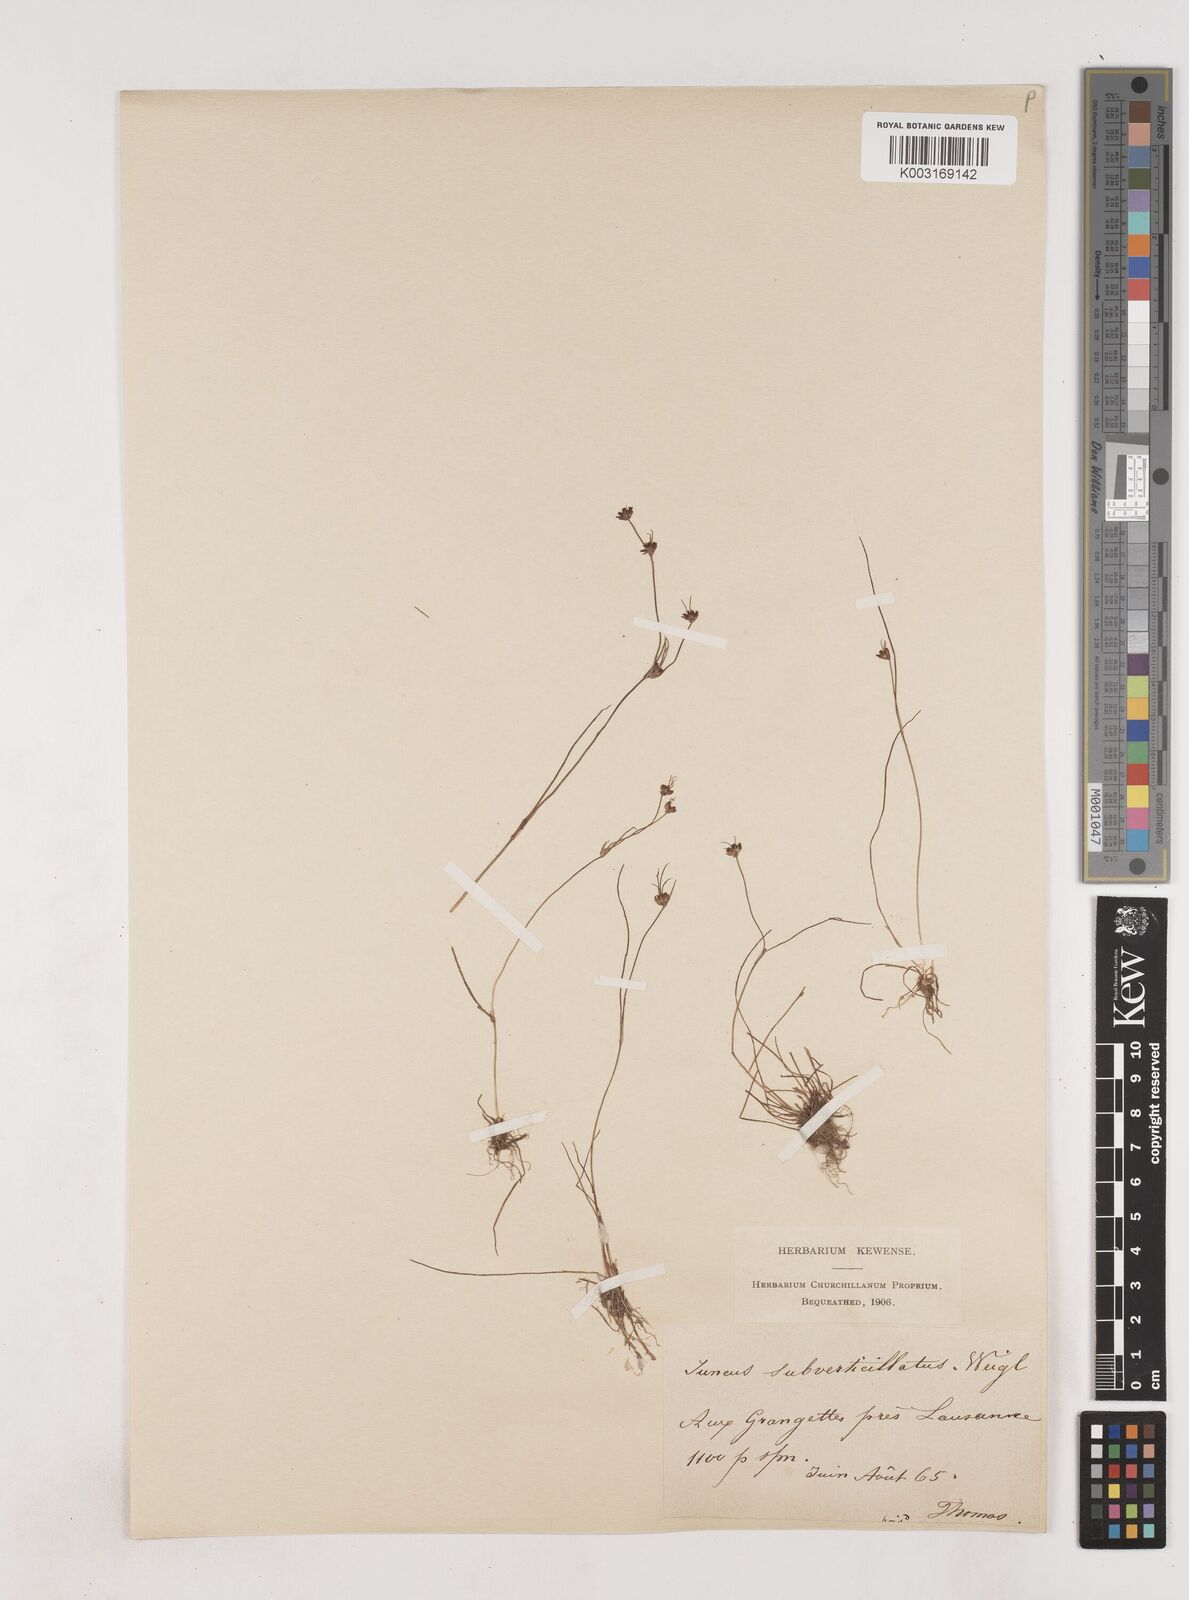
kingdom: Plantae
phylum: Tracheophyta
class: Liliopsida
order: Poales
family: Juncaceae
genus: Juncus
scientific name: Juncus bulbosus
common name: Bulbous rush
